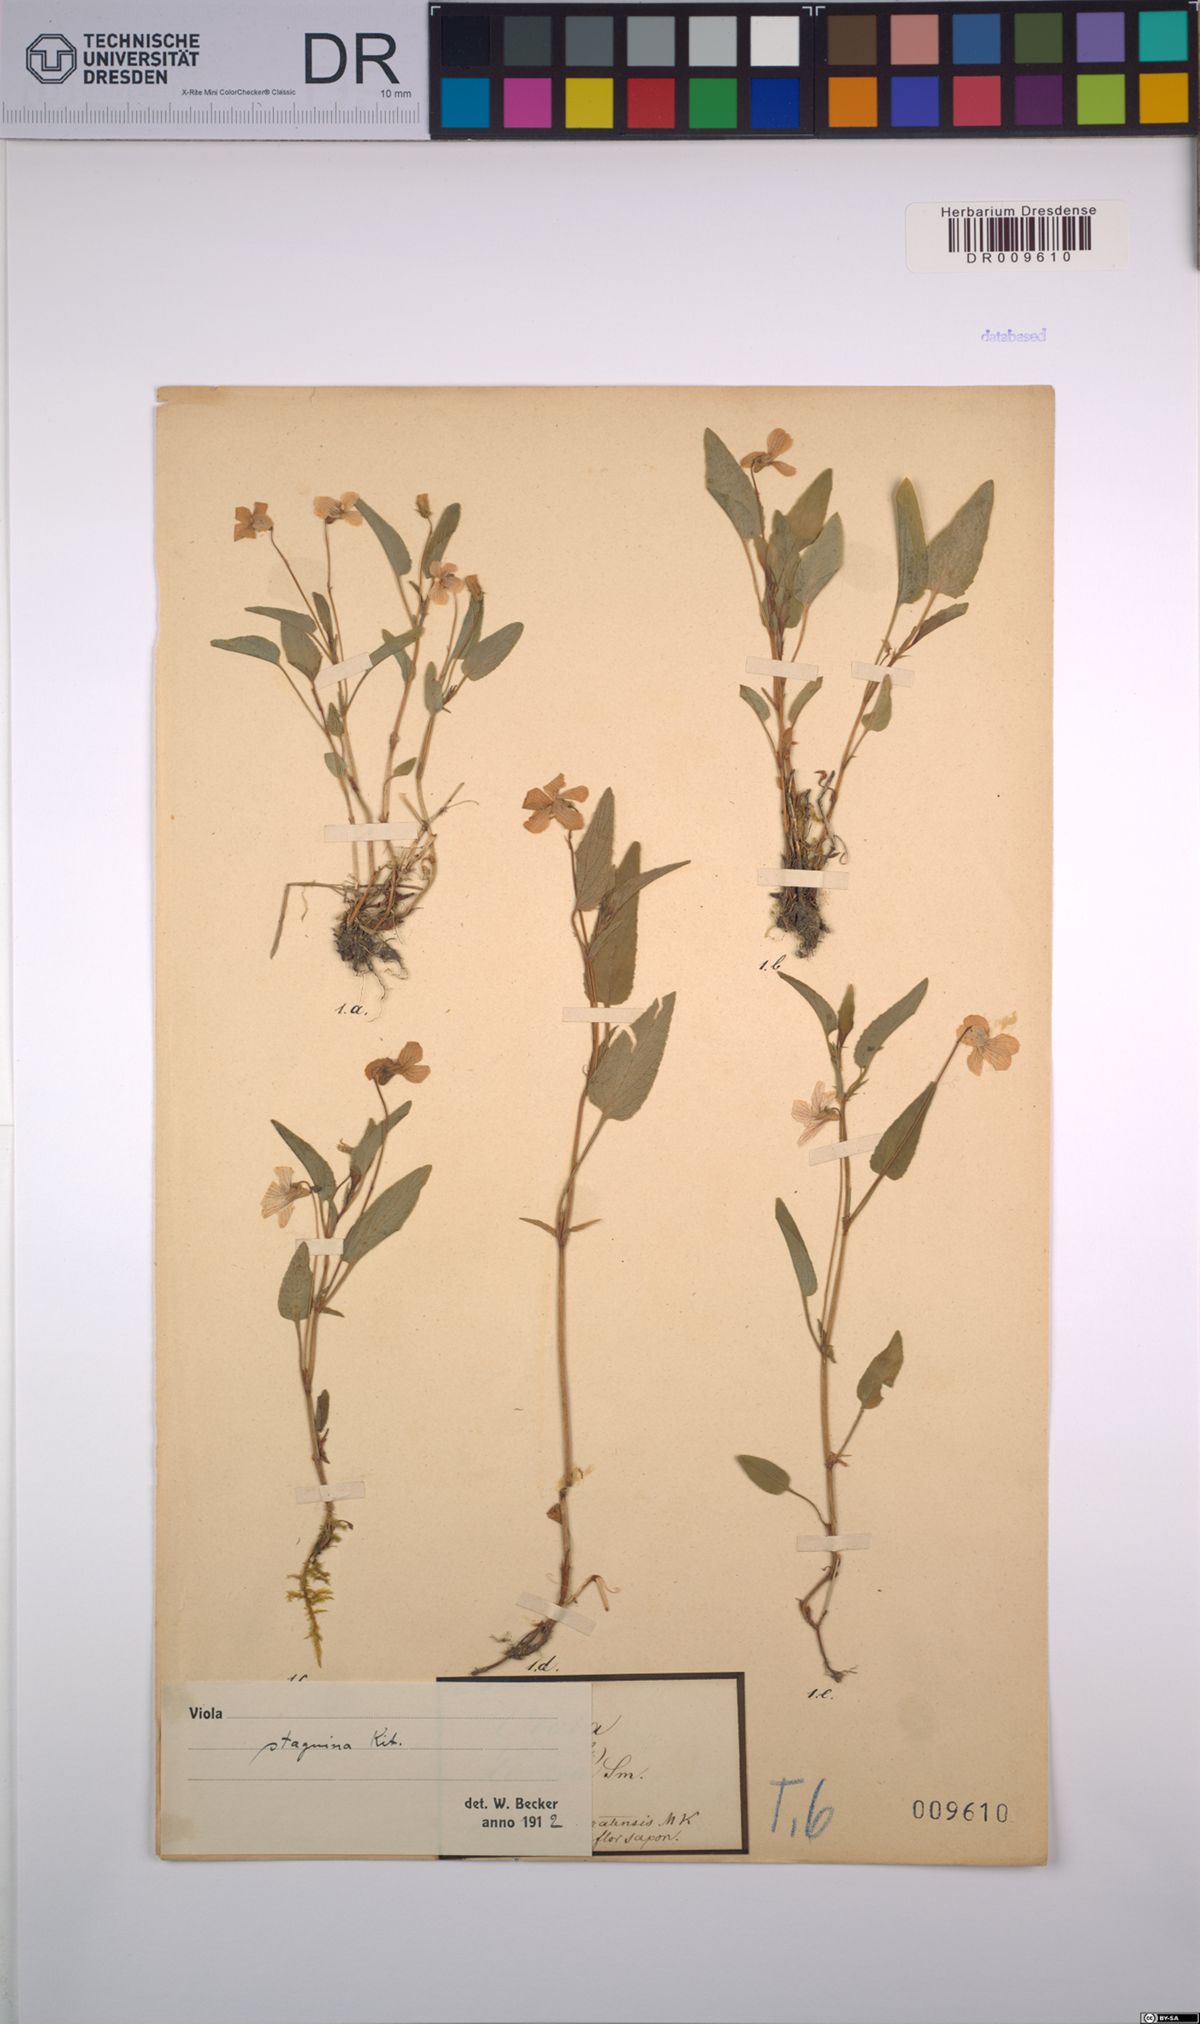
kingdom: Plantae
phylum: Tracheophyta
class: Magnoliopsida
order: Malpighiales
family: Violaceae
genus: Viola
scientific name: Viola stagnina
